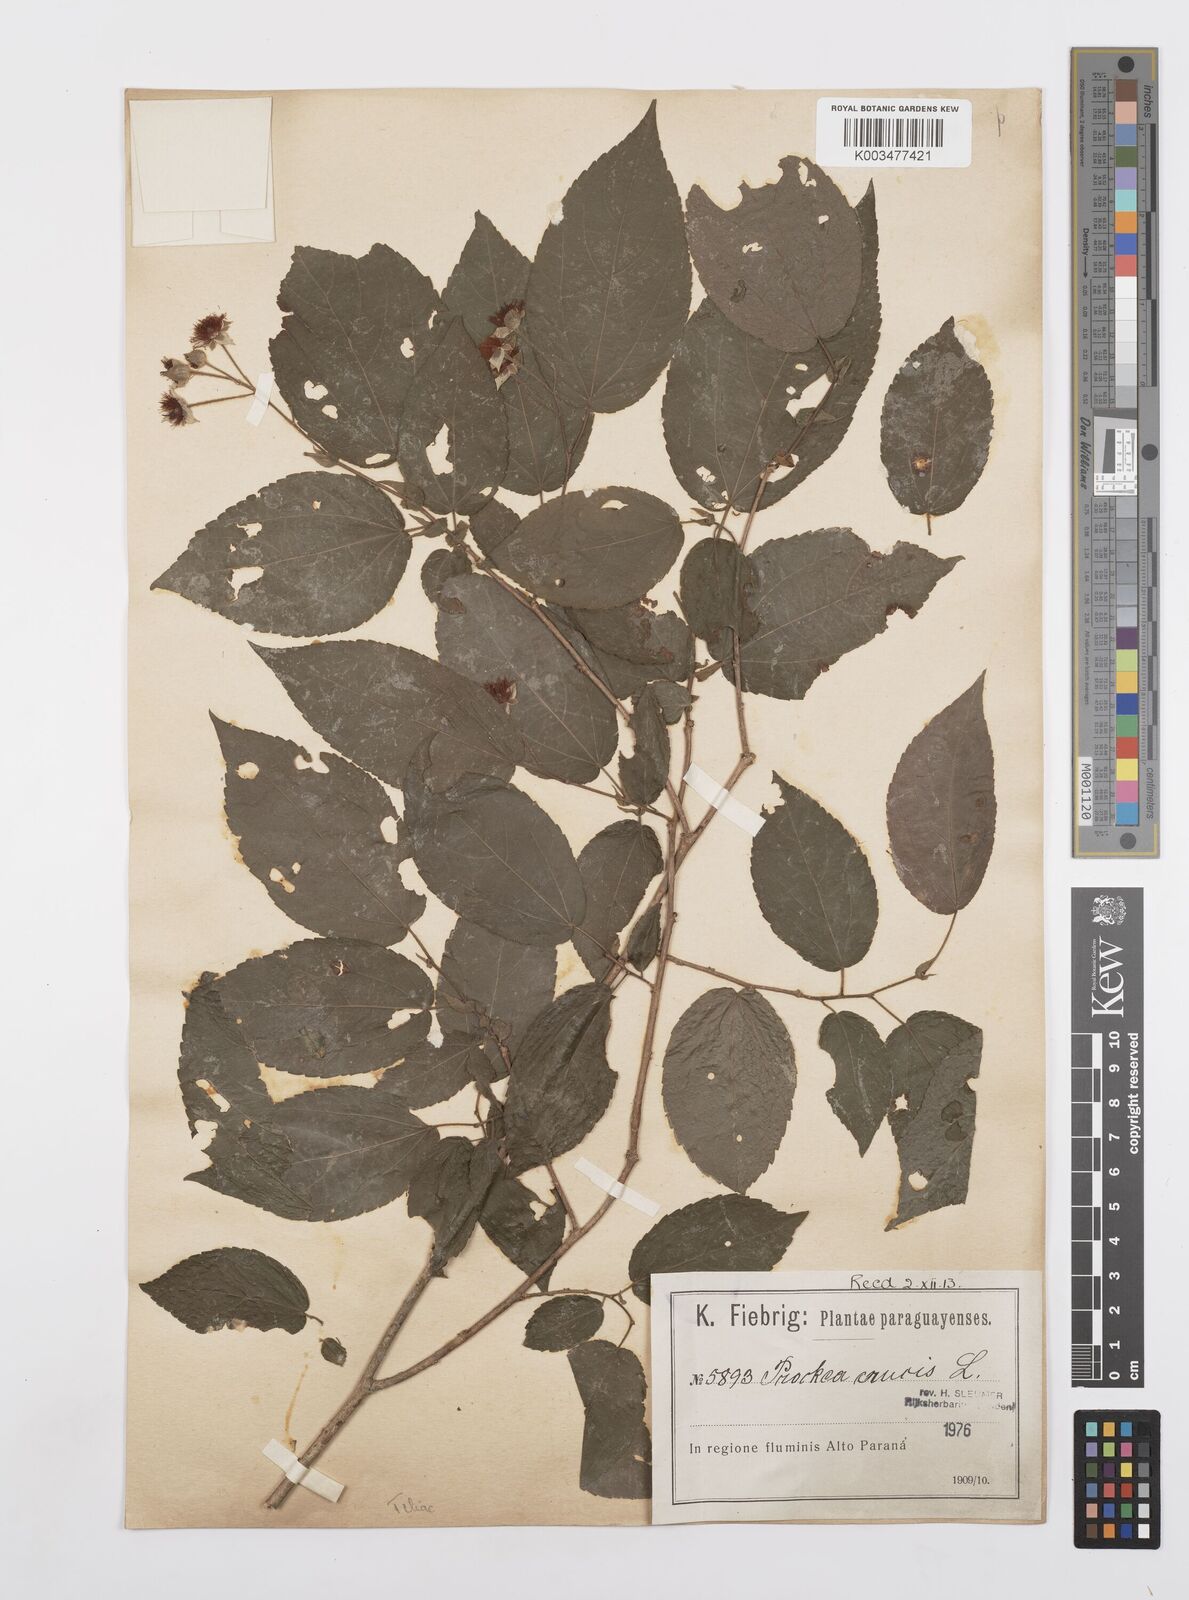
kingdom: Plantae
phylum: Tracheophyta
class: Magnoliopsida
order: Malpighiales
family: Salicaceae
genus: Prockia
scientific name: Prockia crucis
